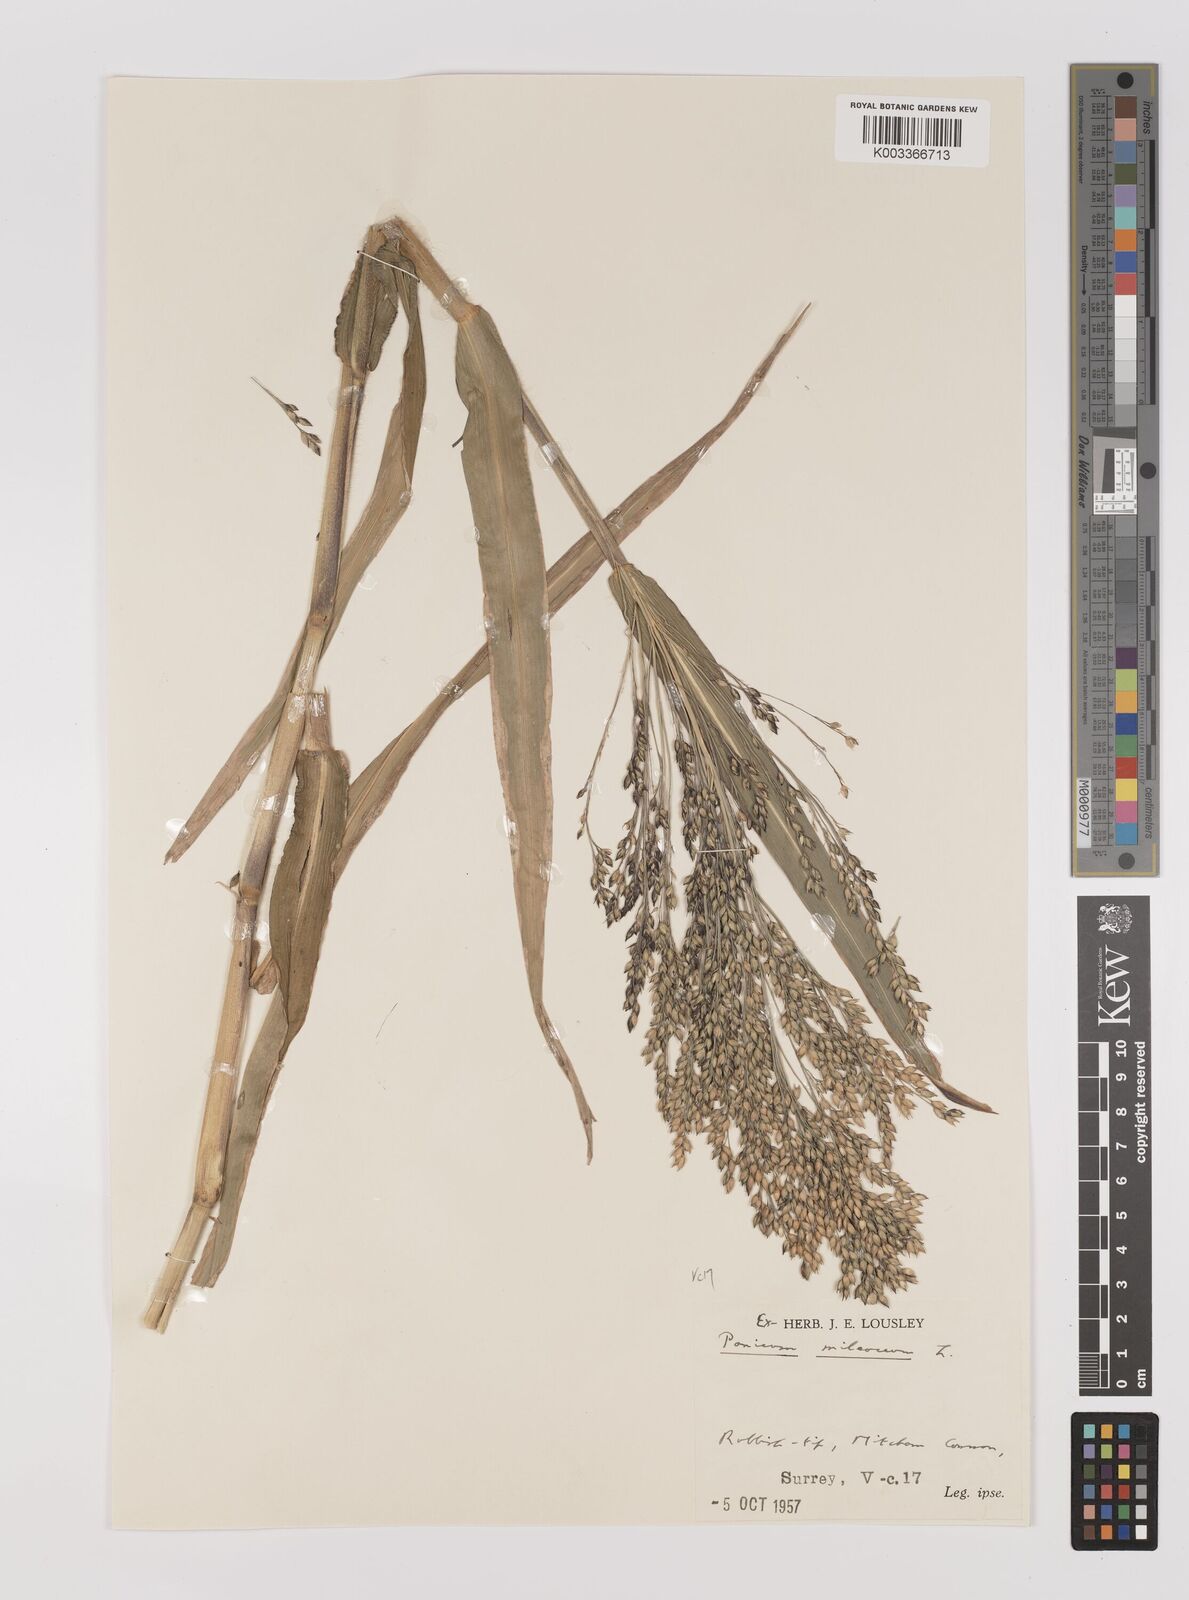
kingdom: Plantae
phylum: Tracheophyta
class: Liliopsida
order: Poales
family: Poaceae
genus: Panicum
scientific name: Panicum miliaceum
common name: Common millet
